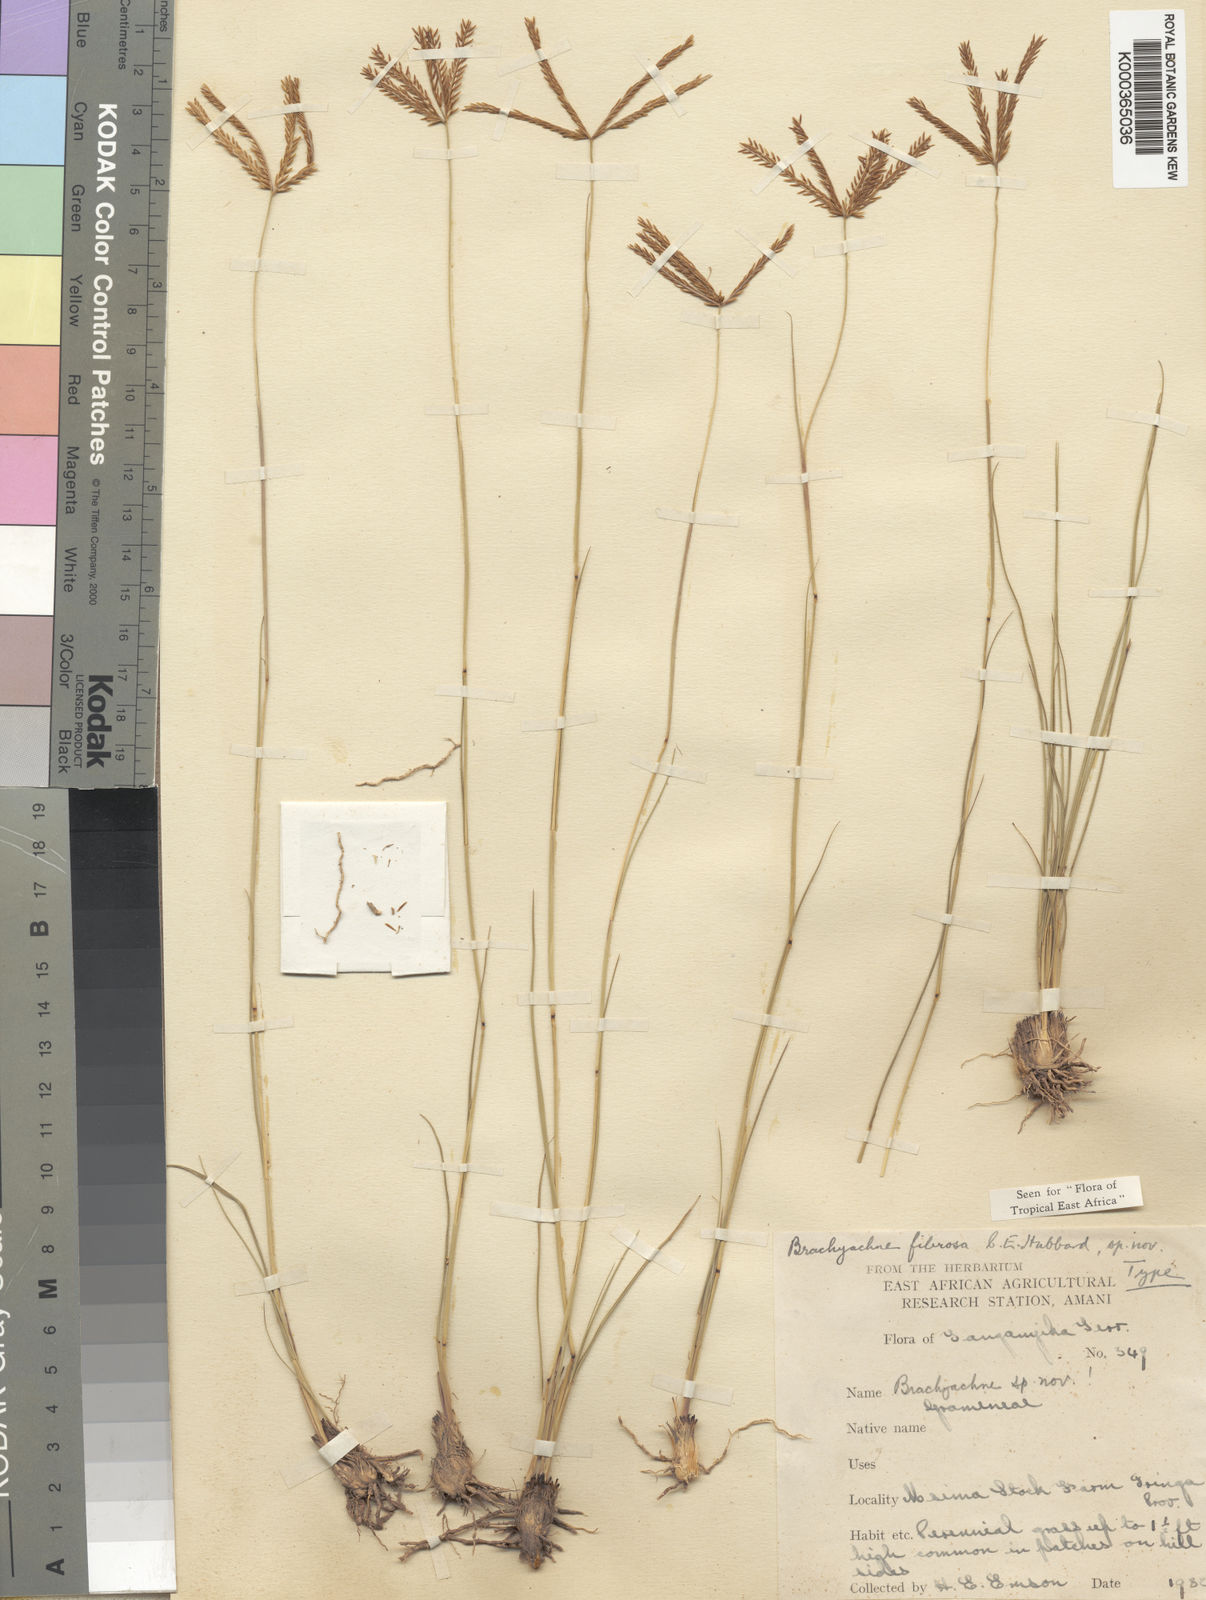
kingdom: Plantae
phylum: Tracheophyta
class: Liliopsida
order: Poales
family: Poaceae
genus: Micrachne
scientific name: Micrachne fulva
